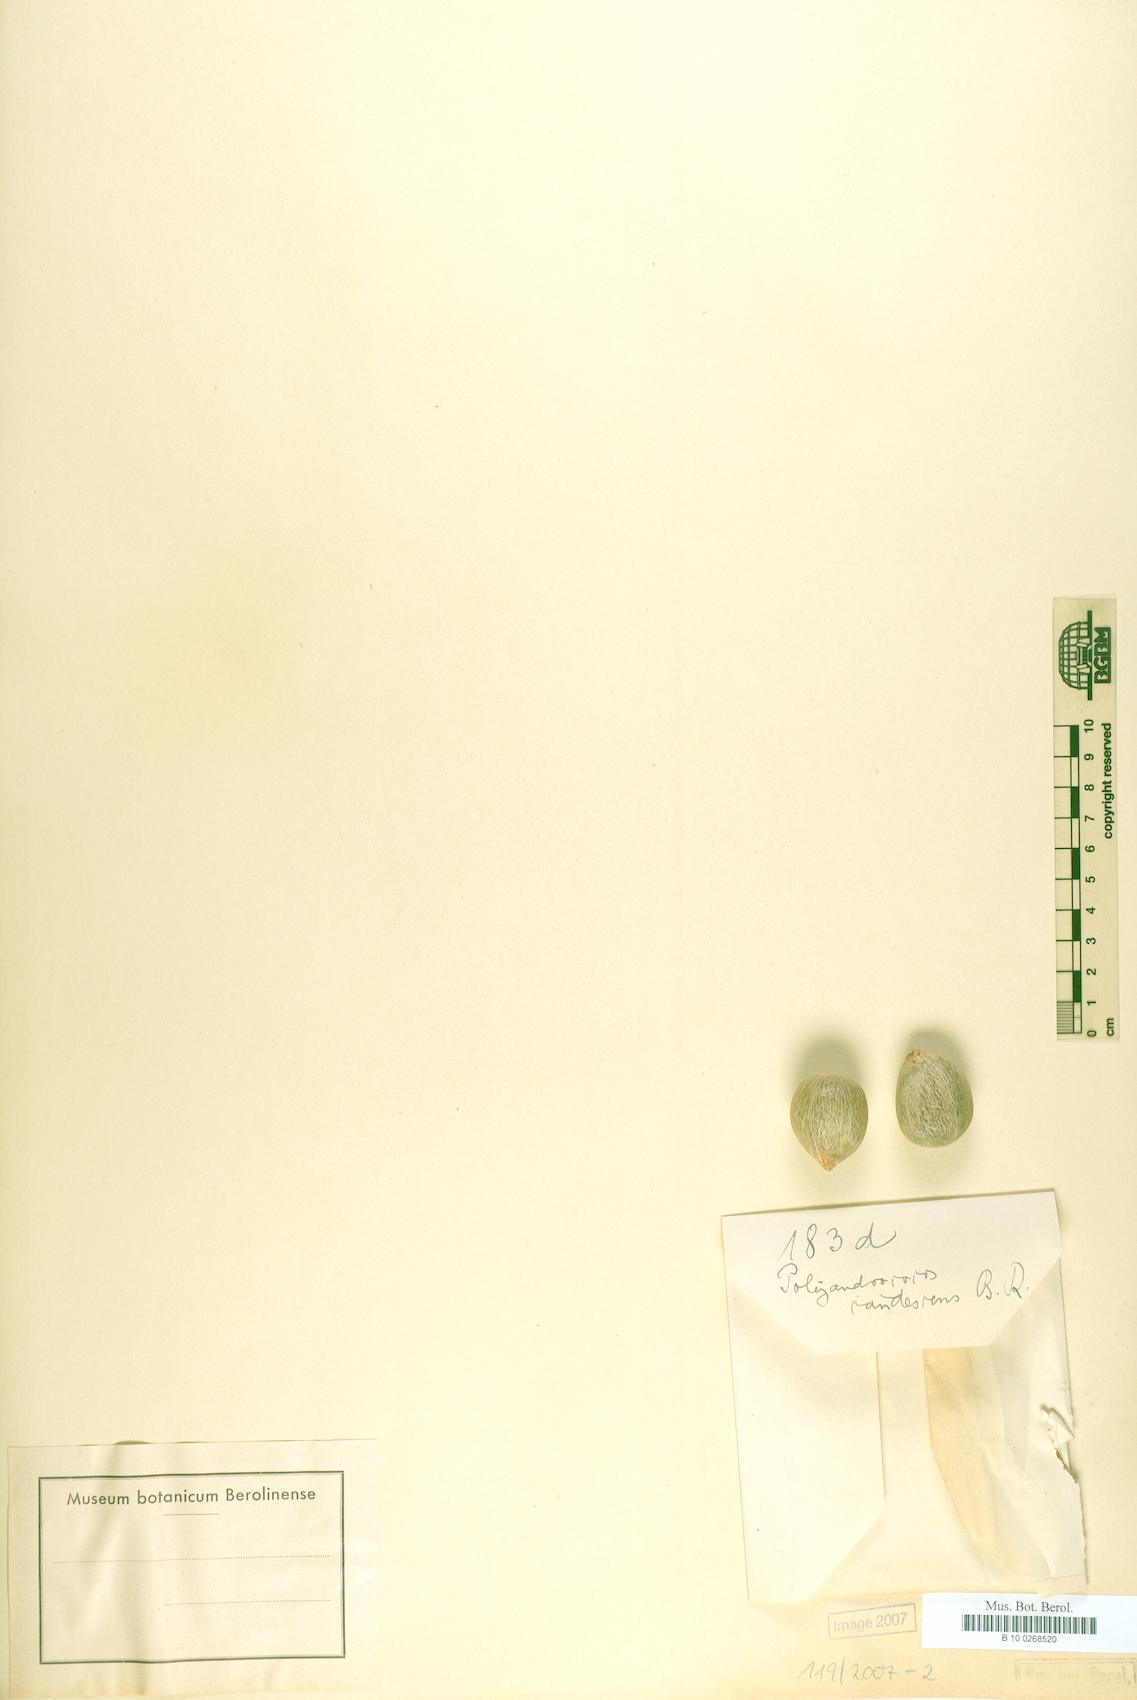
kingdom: Plantae
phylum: Tracheophyta
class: Liliopsida
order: Arecales
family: Arecaceae
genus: Allagoptera
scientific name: Allagoptera caudescens
